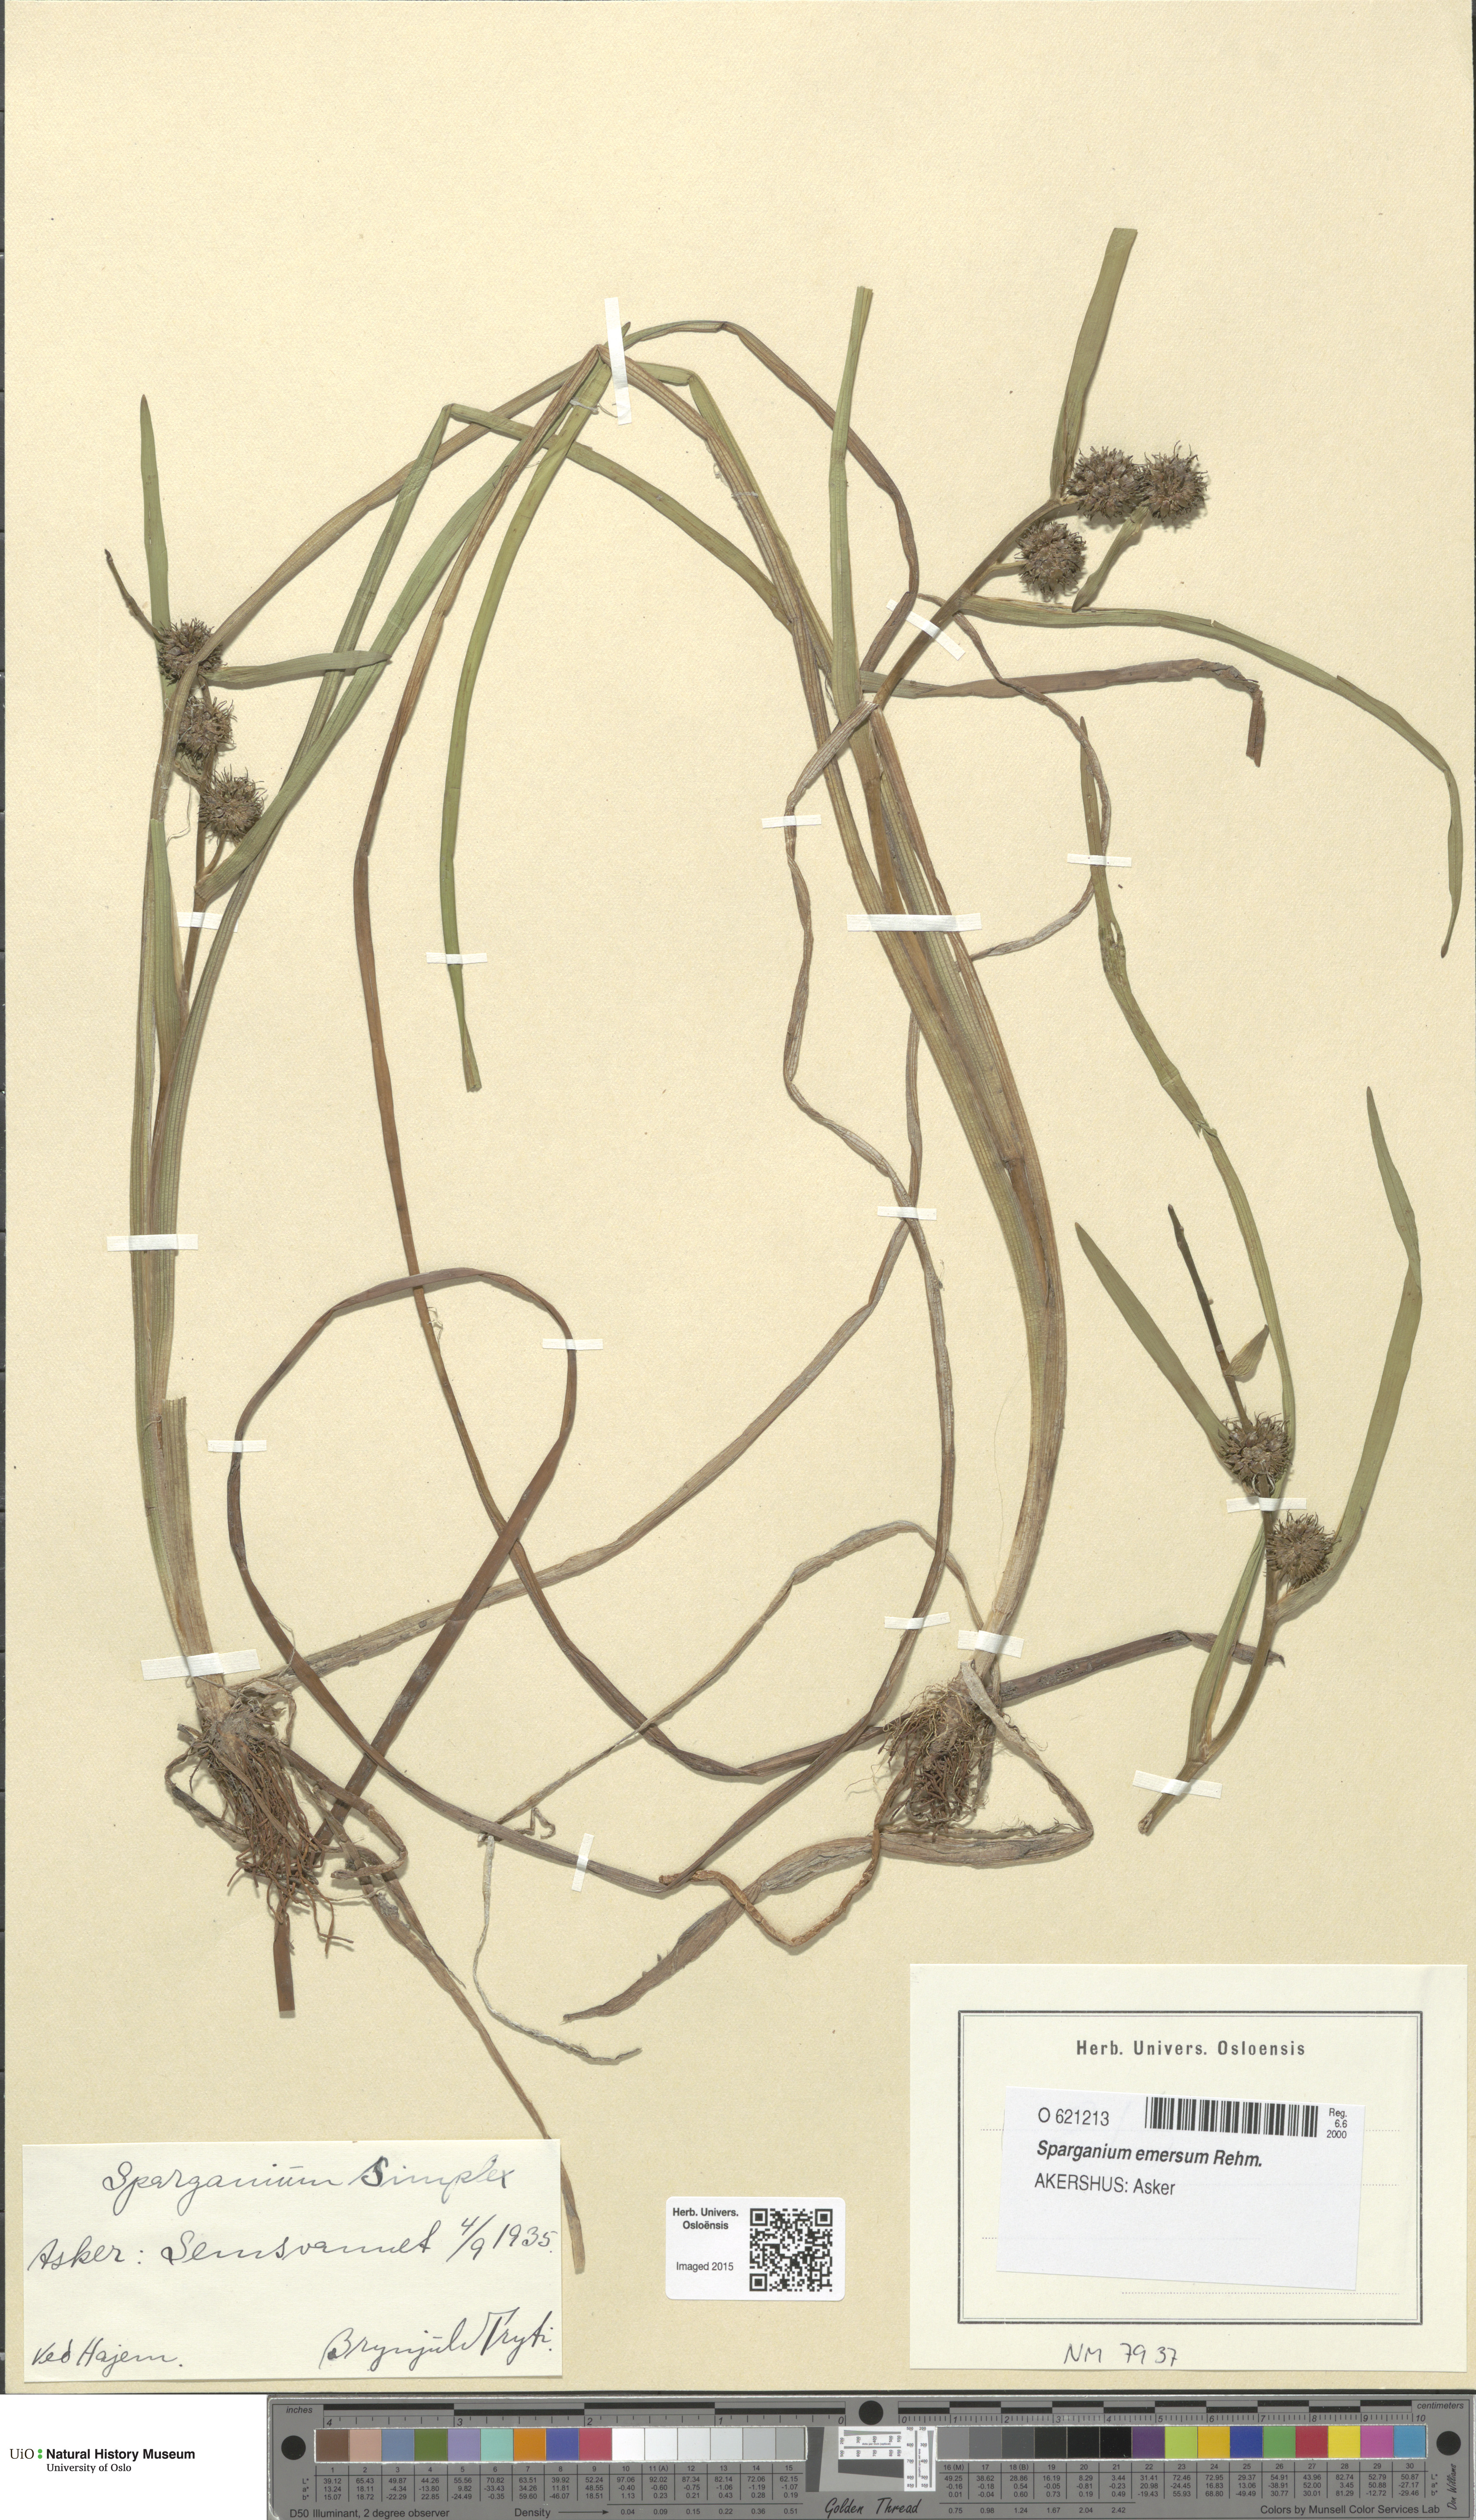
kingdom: Plantae
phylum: Tracheophyta
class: Liliopsida
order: Poales
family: Typhaceae
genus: Sparganium
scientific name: Sparganium emersum
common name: Unbranched bur-reed
